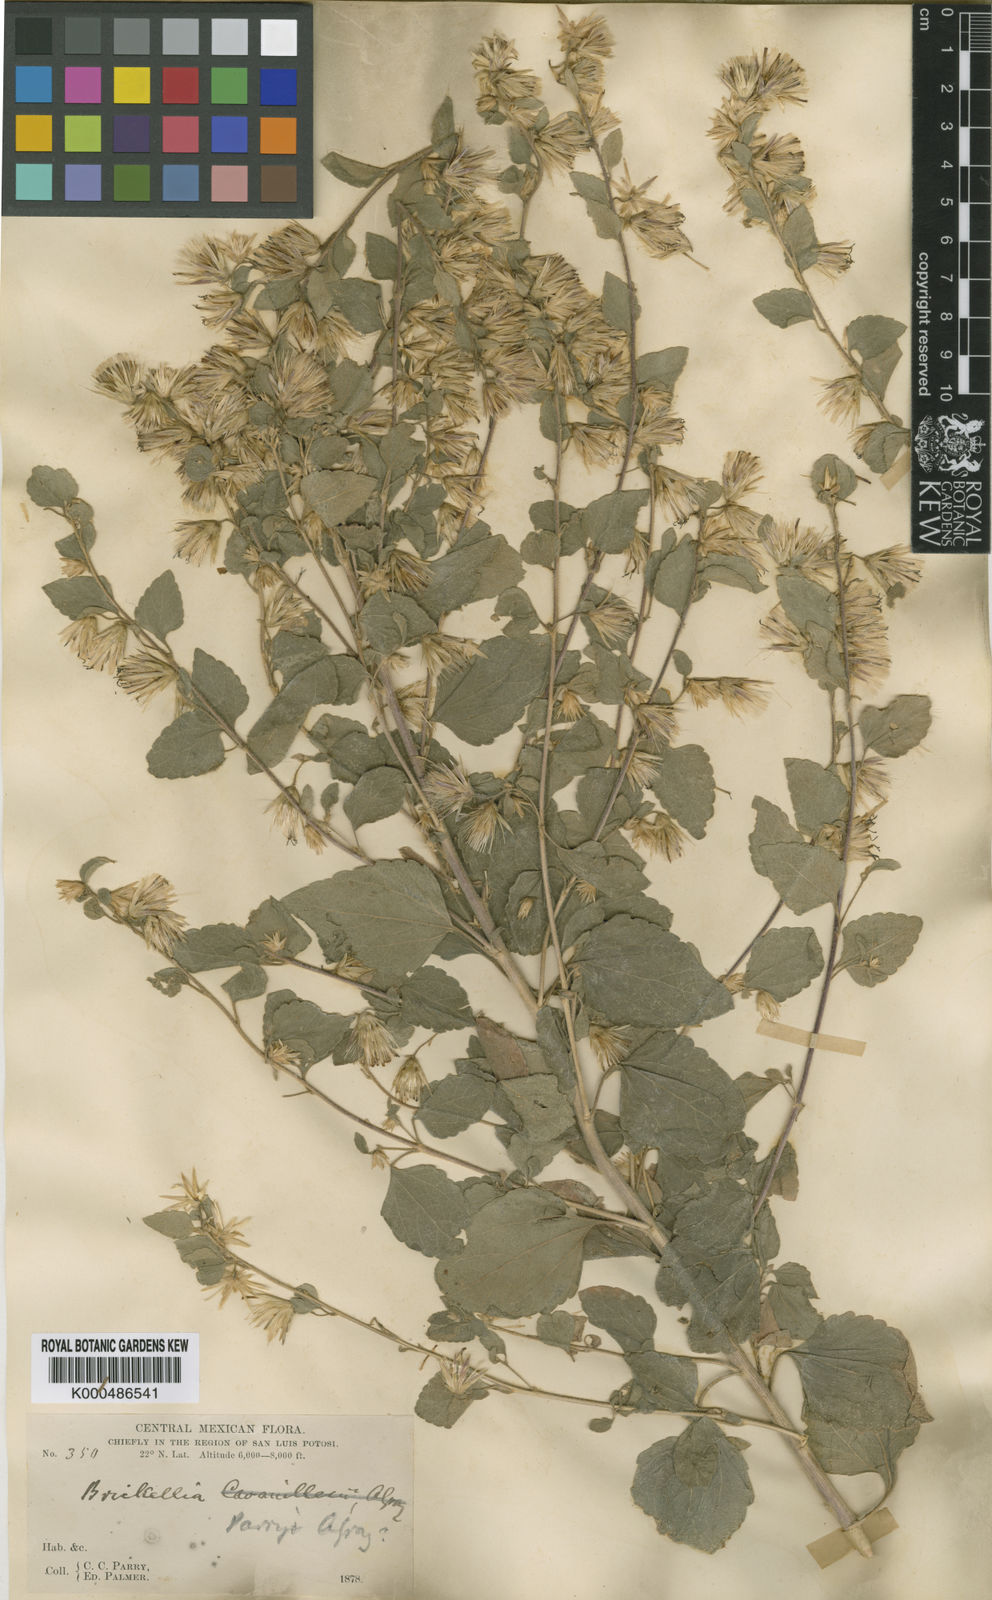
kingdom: Plantae
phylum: Tracheophyta
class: Magnoliopsida
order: Asterales
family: Asteraceae
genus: Brickellia
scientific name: Brickellia tomentella
